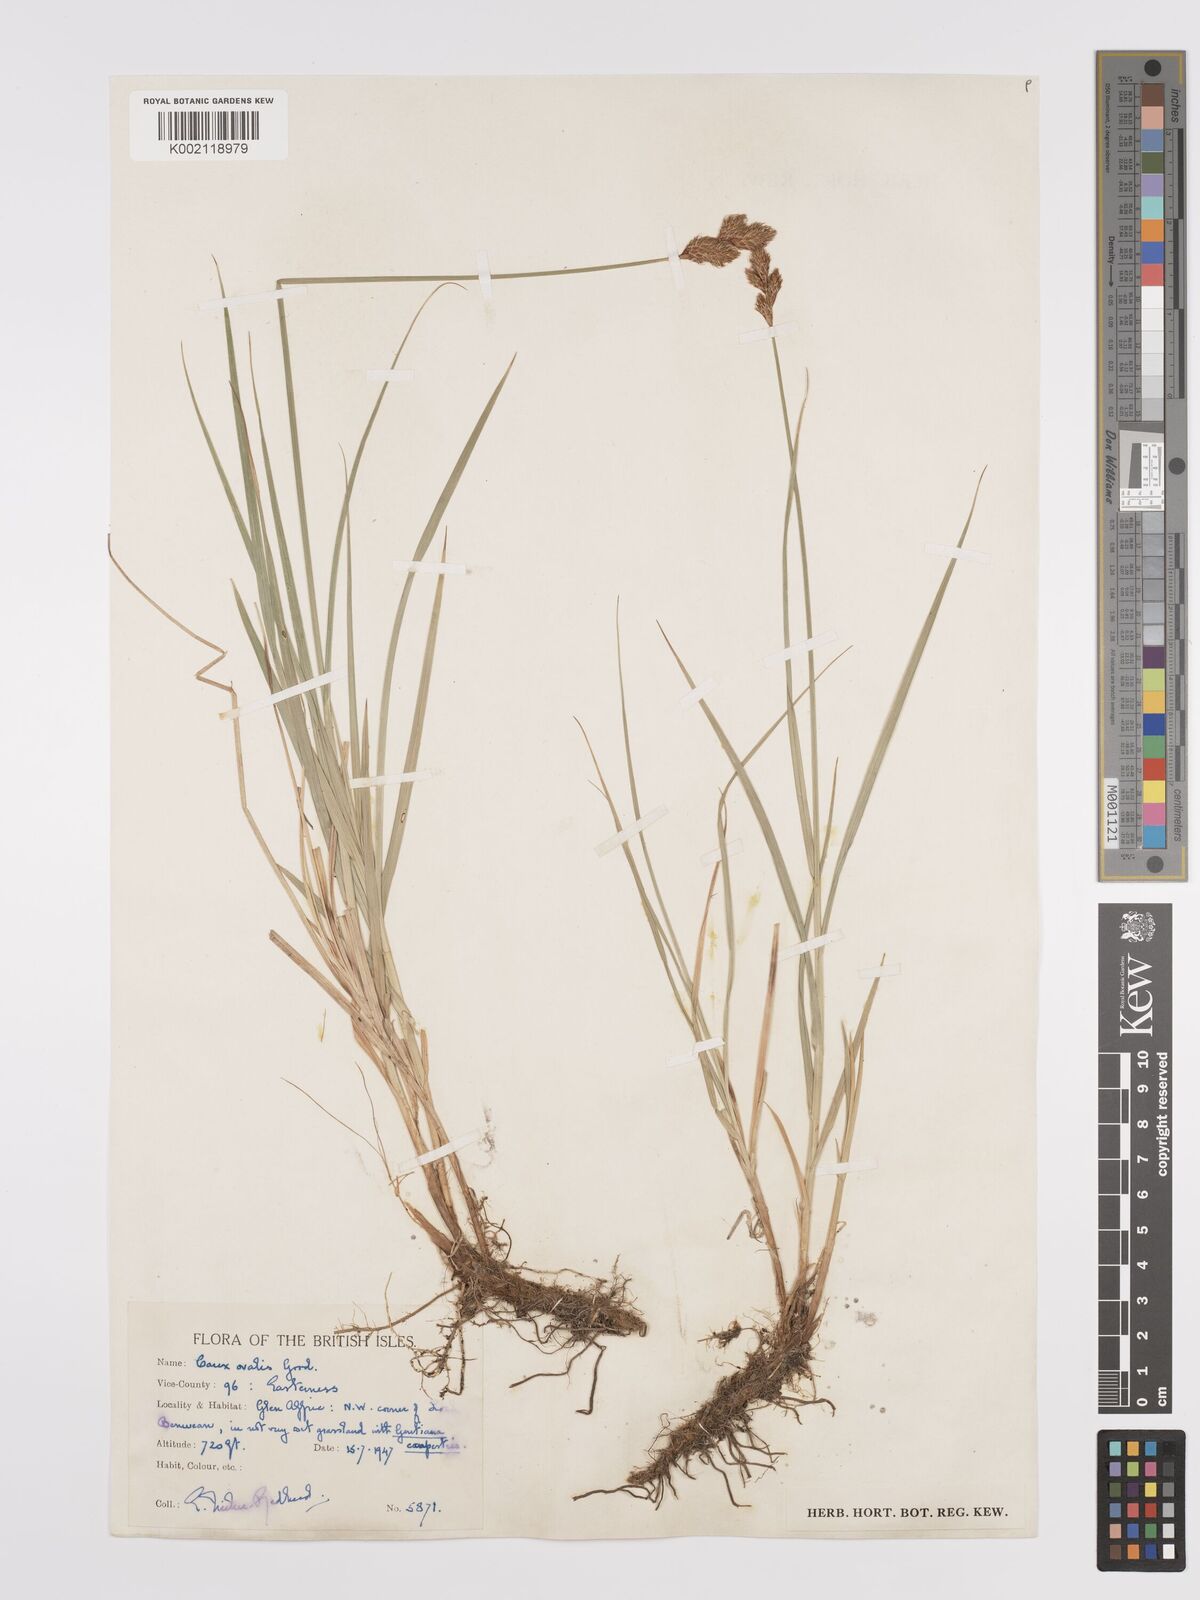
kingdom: Plantae
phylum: Tracheophyta
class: Liliopsida
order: Poales
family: Cyperaceae
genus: Carex
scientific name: Carex leporina
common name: Oval sedge
